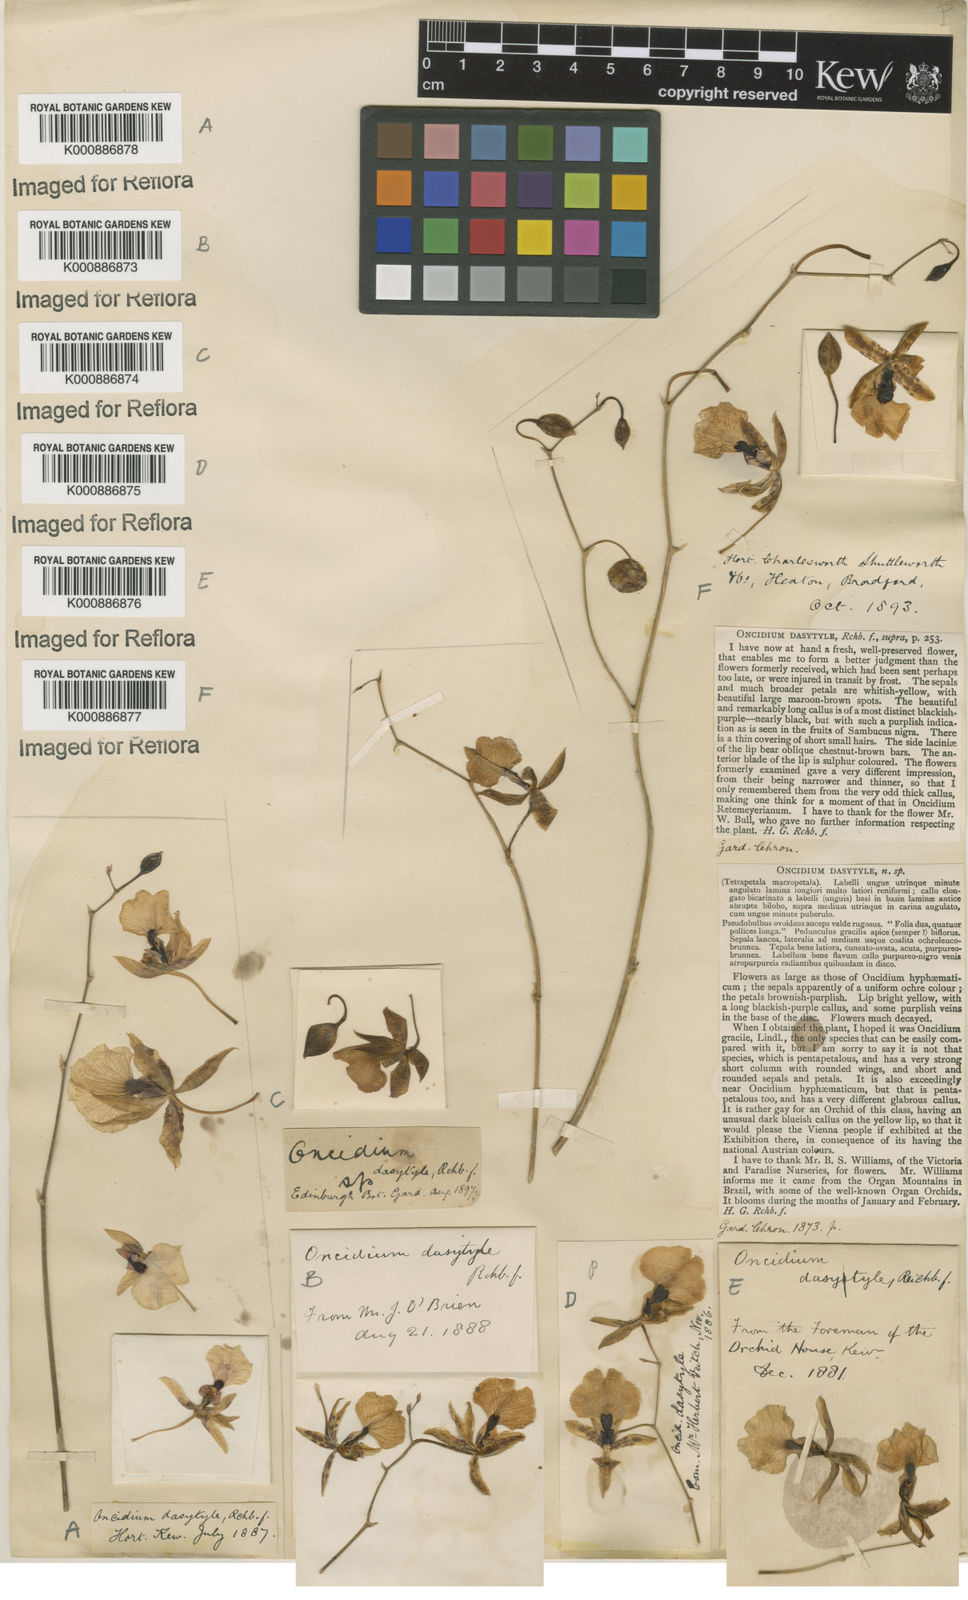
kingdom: Plantae
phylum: Tracheophyta
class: Liliopsida
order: Asparagales
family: Orchidaceae
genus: Gomesa
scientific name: Gomesa dasytyle
